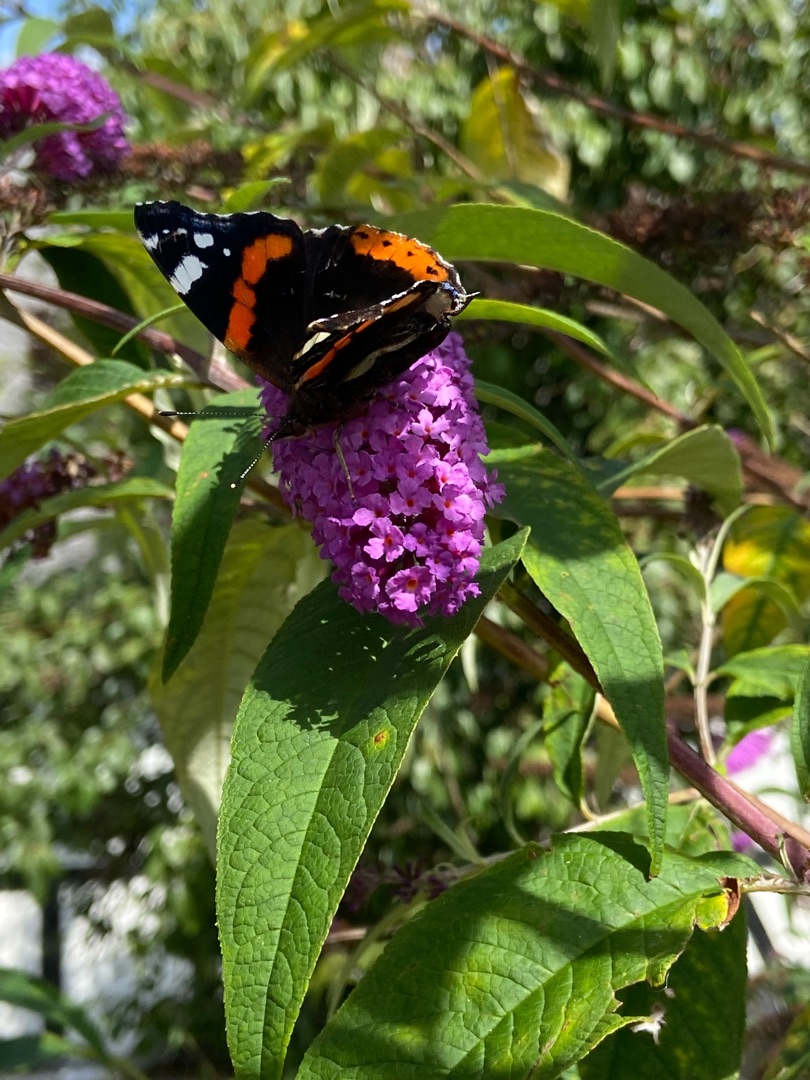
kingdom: Animalia
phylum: Arthropoda
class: Insecta
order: Lepidoptera
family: Nymphalidae
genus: Vanessa
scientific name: Vanessa atalanta
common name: Admiral
